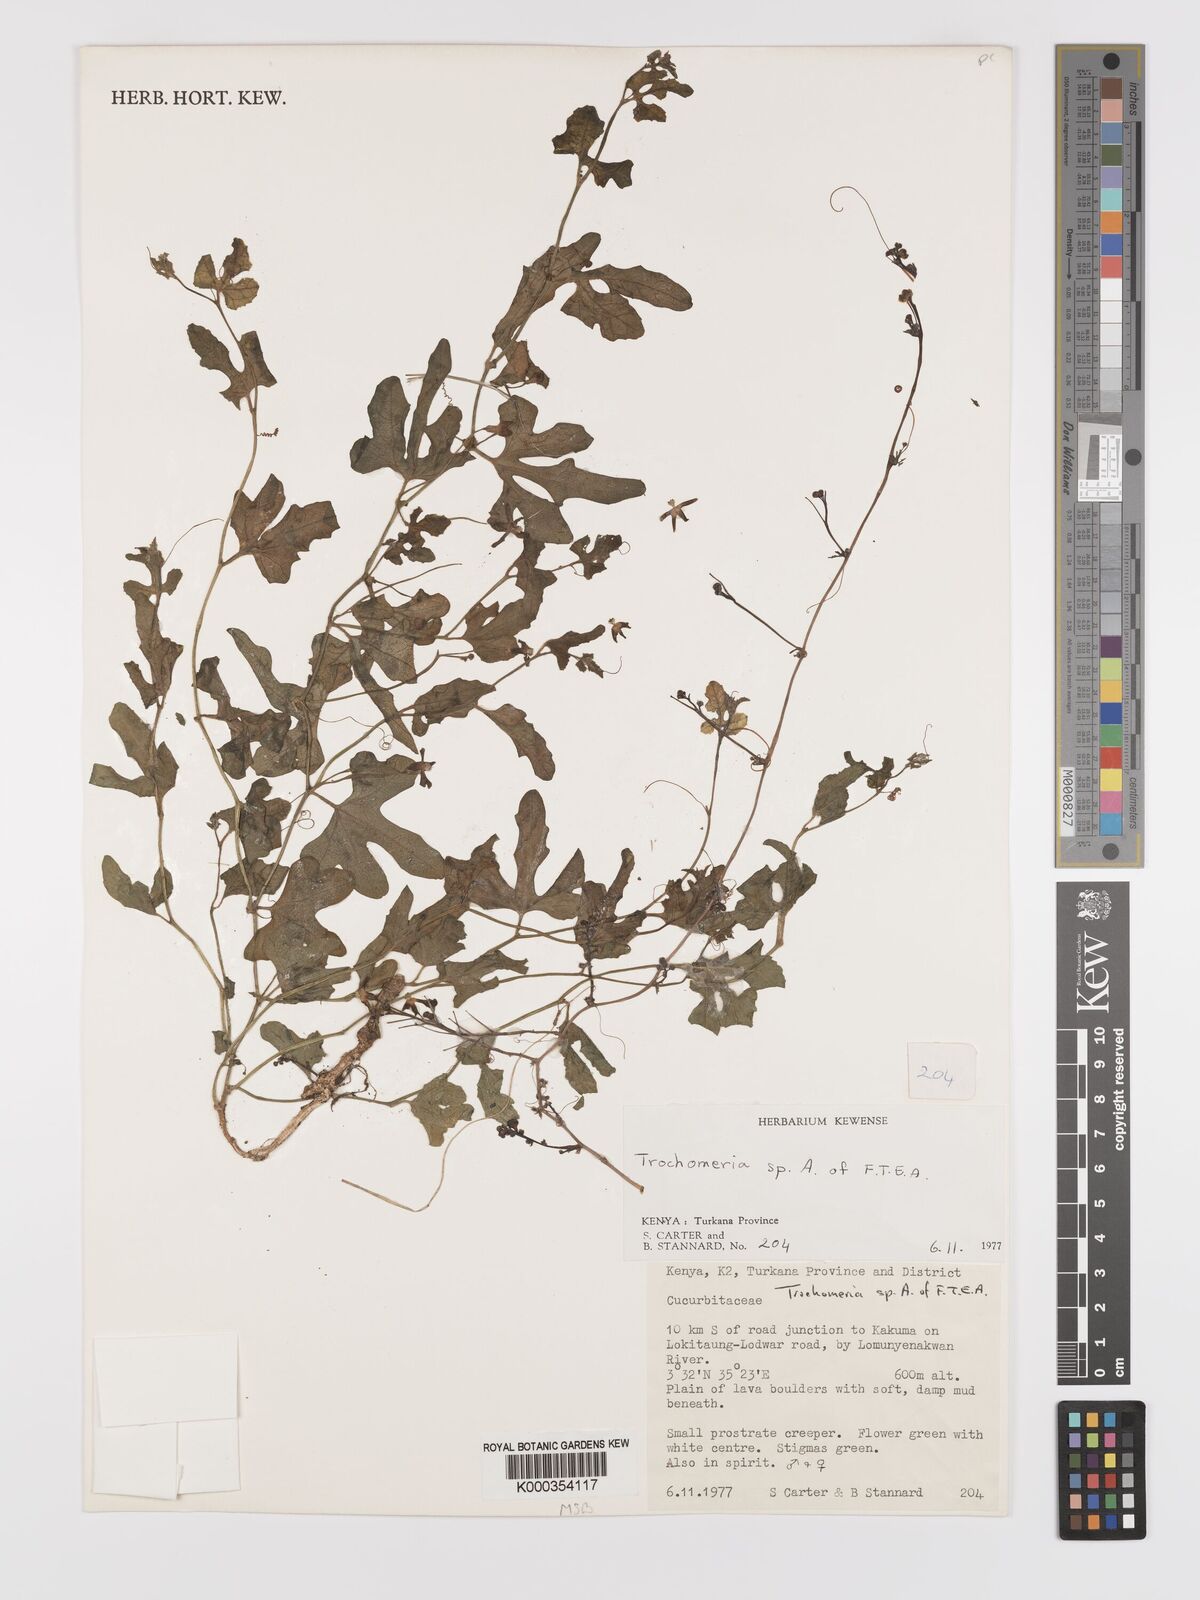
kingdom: Plantae
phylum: Tracheophyta
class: Magnoliopsida
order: Cucurbitales
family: Cucurbitaceae
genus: Dactyliandra
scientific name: Dactyliandra stefaninii
